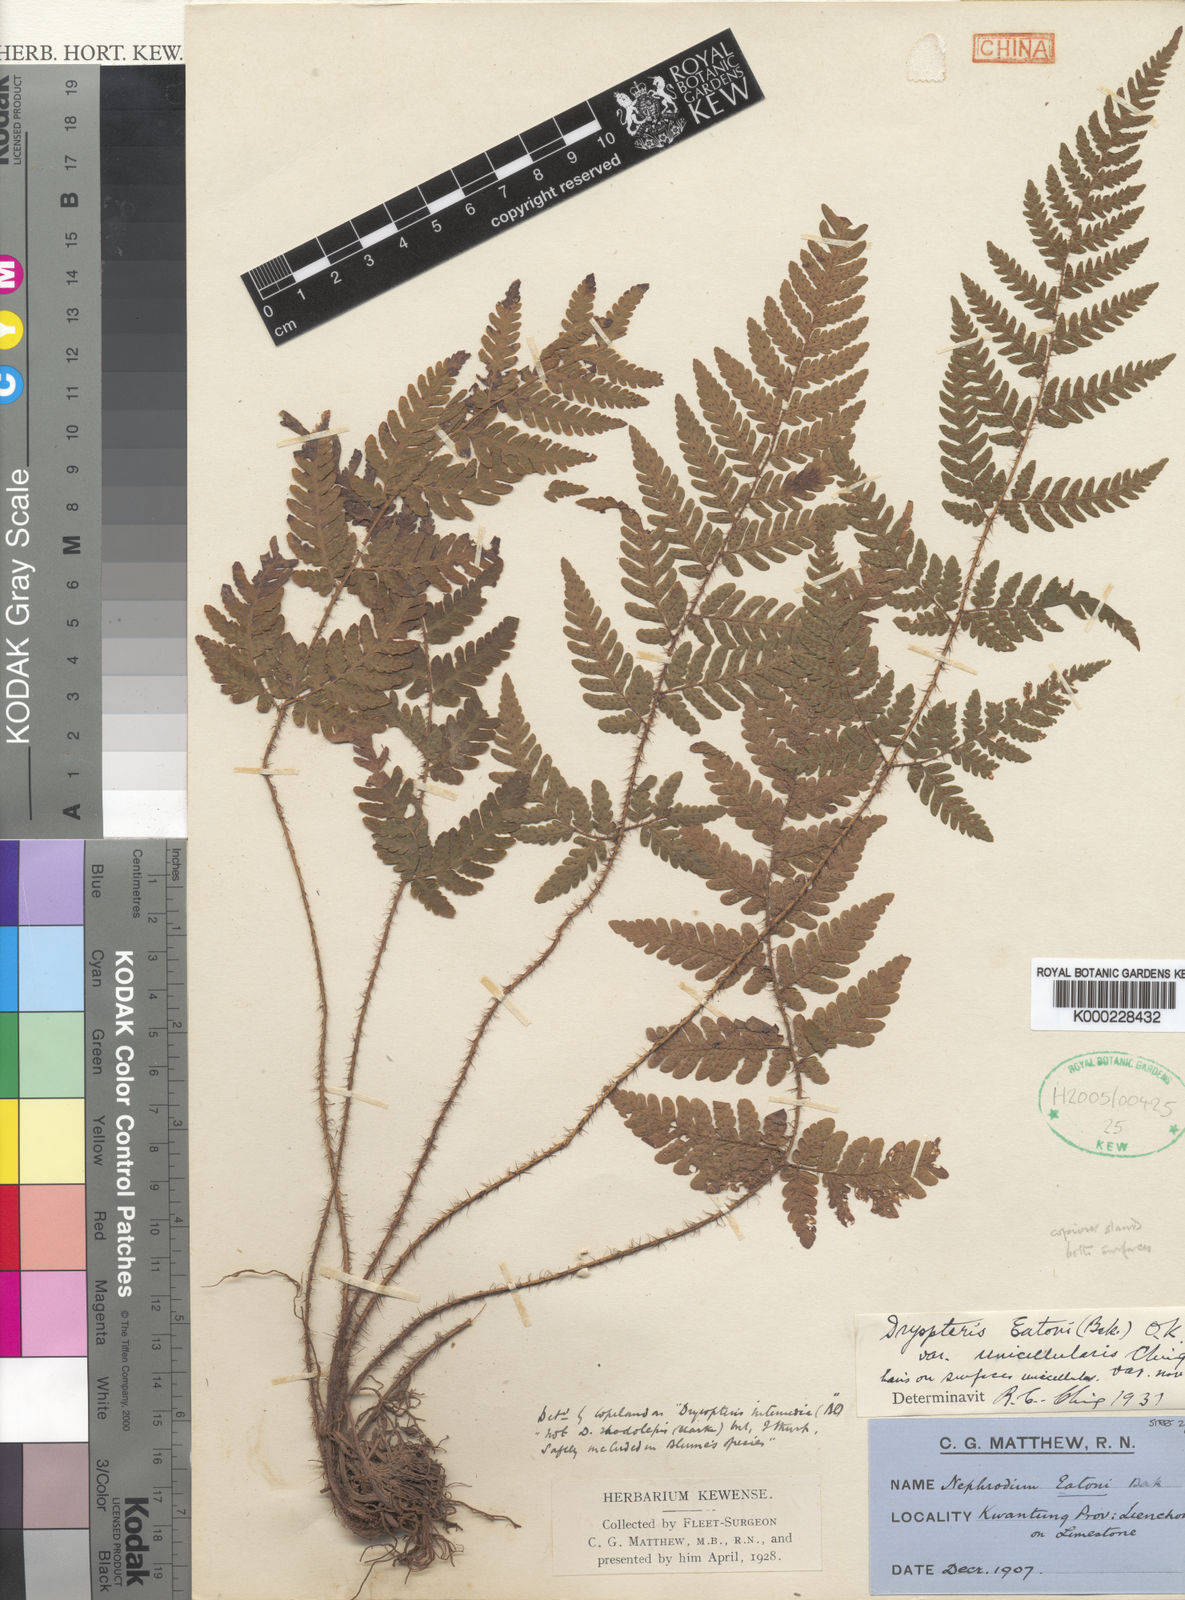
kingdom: Plantae
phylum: Tracheophyta
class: Polypodiopsida
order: Polypodiales
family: Dryopteridaceae
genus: Ctenitis
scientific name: Ctenitis eatonii
